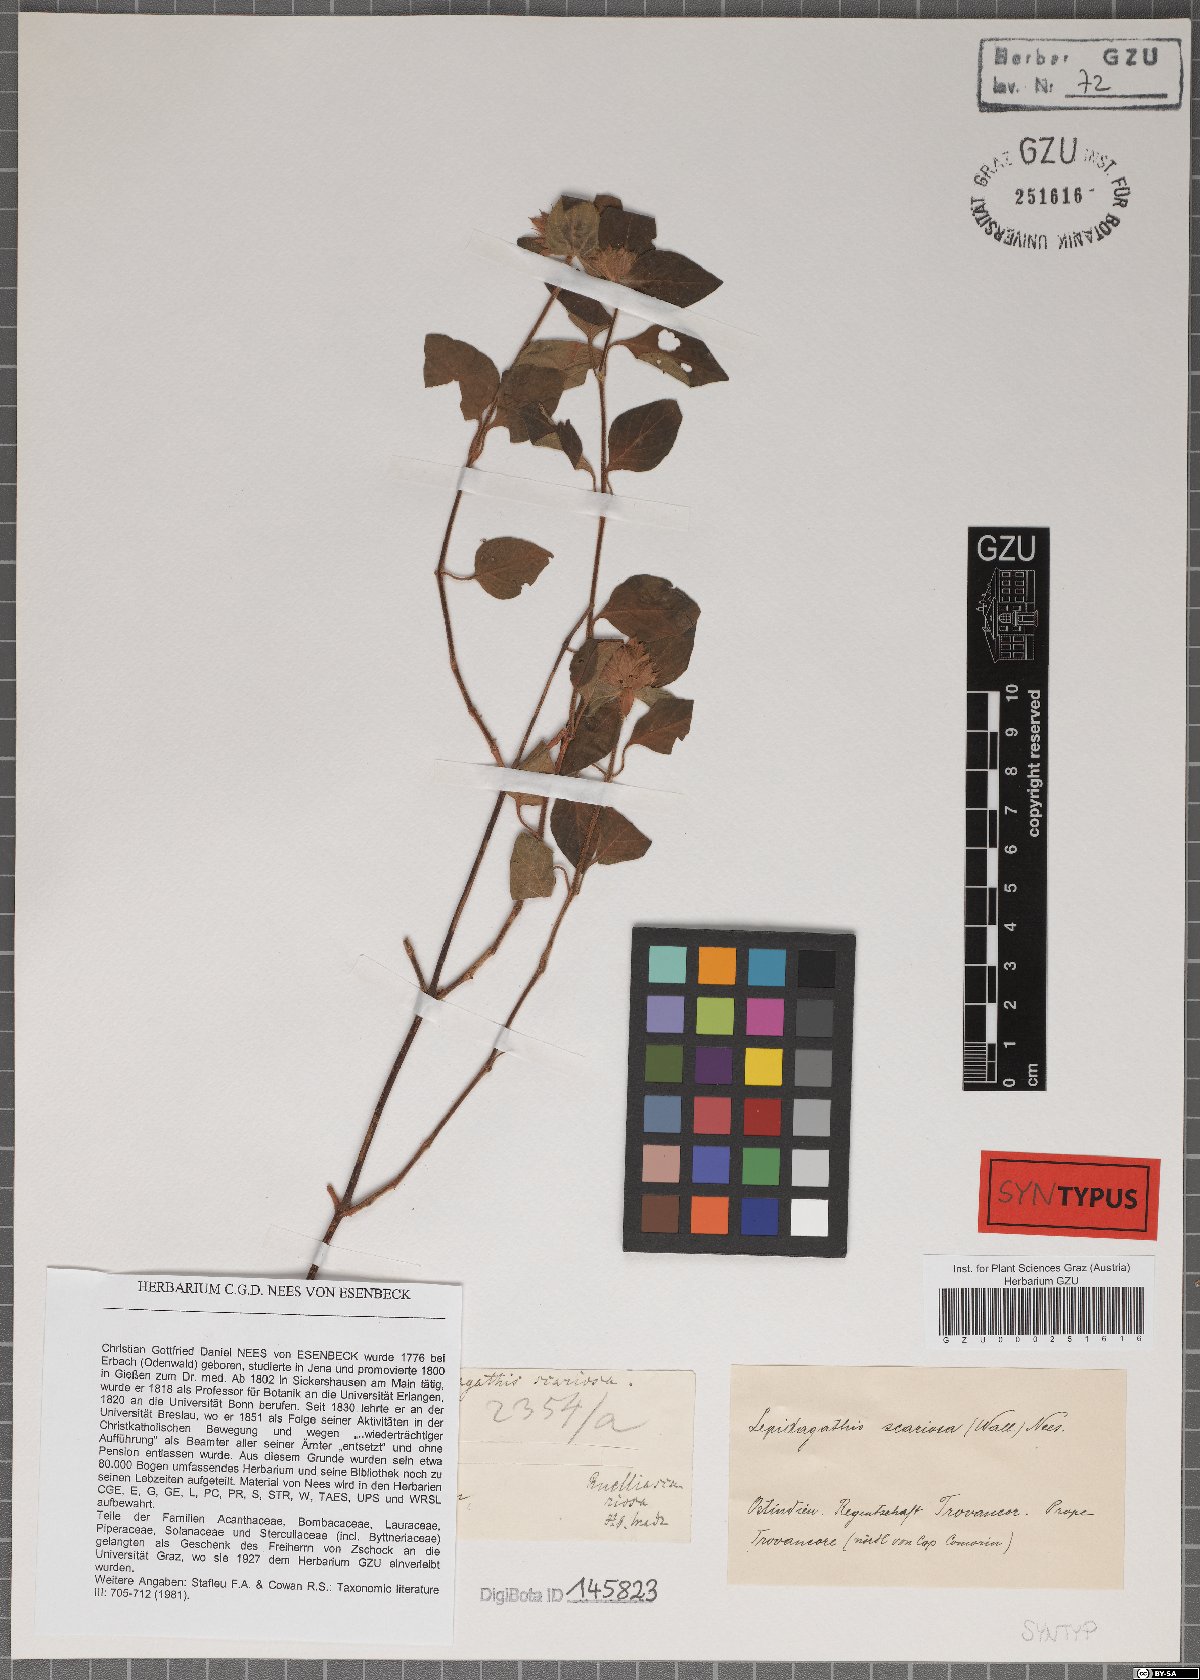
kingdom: Plantae
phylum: Tracheophyta
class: Magnoliopsida
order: Lamiales
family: Acanthaceae
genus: Lepidagathis
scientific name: Lepidagathis scariosa
